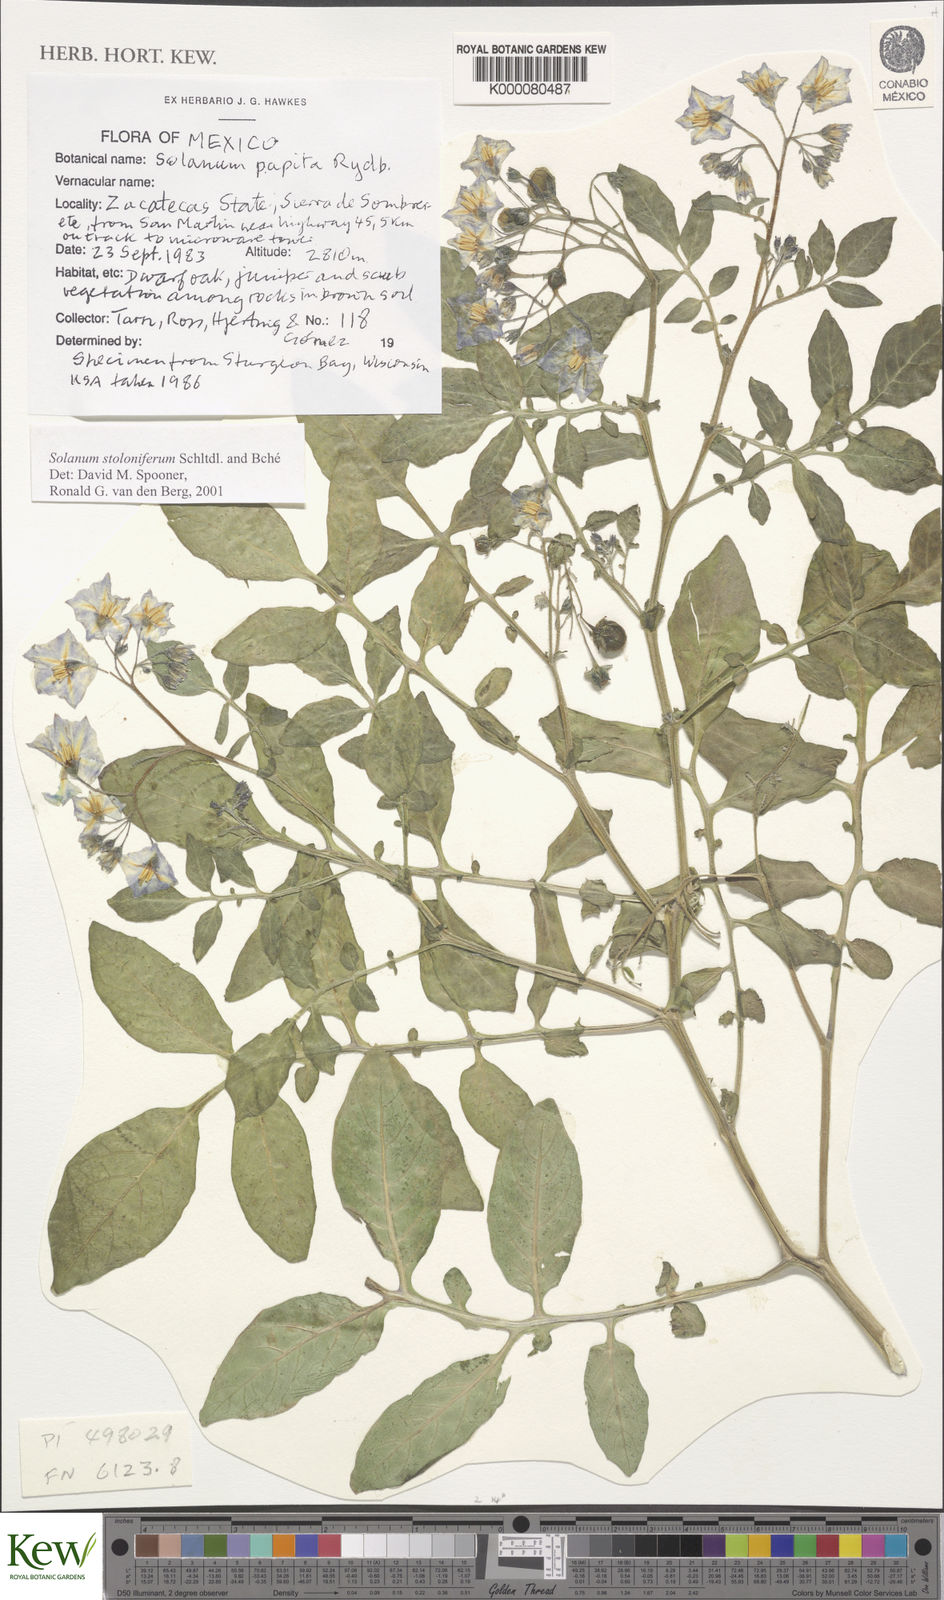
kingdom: Plantae
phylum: Tracheophyta
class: Magnoliopsida
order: Solanales
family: Solanaceae
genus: Solanum
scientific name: Solanum stoloniferum
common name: Fendler's nighshade
